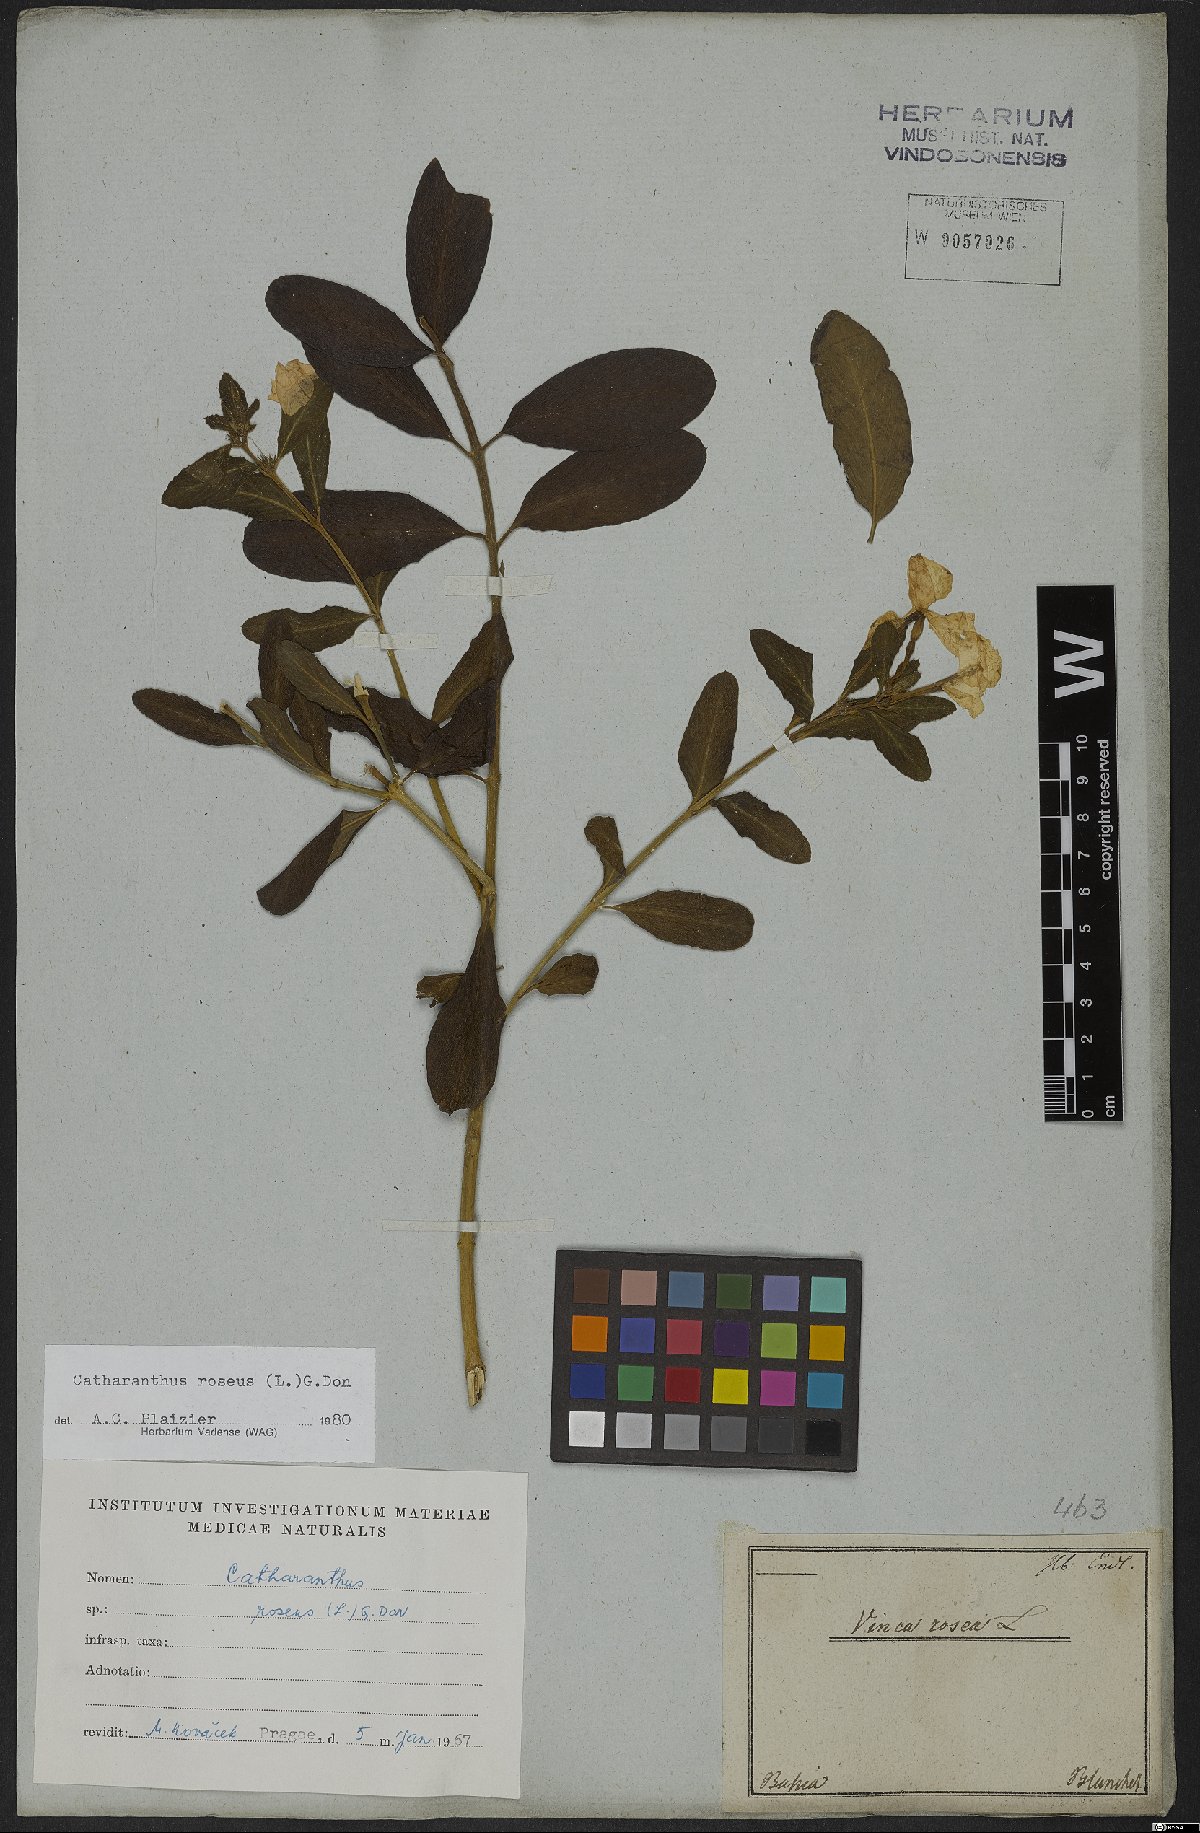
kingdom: Plantae
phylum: Tracheophyta
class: Magnoliopsida
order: Gentianales
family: Apocynaceae
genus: Catharanthus
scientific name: Catharanthus roseus
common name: Madagascar periwinkle
